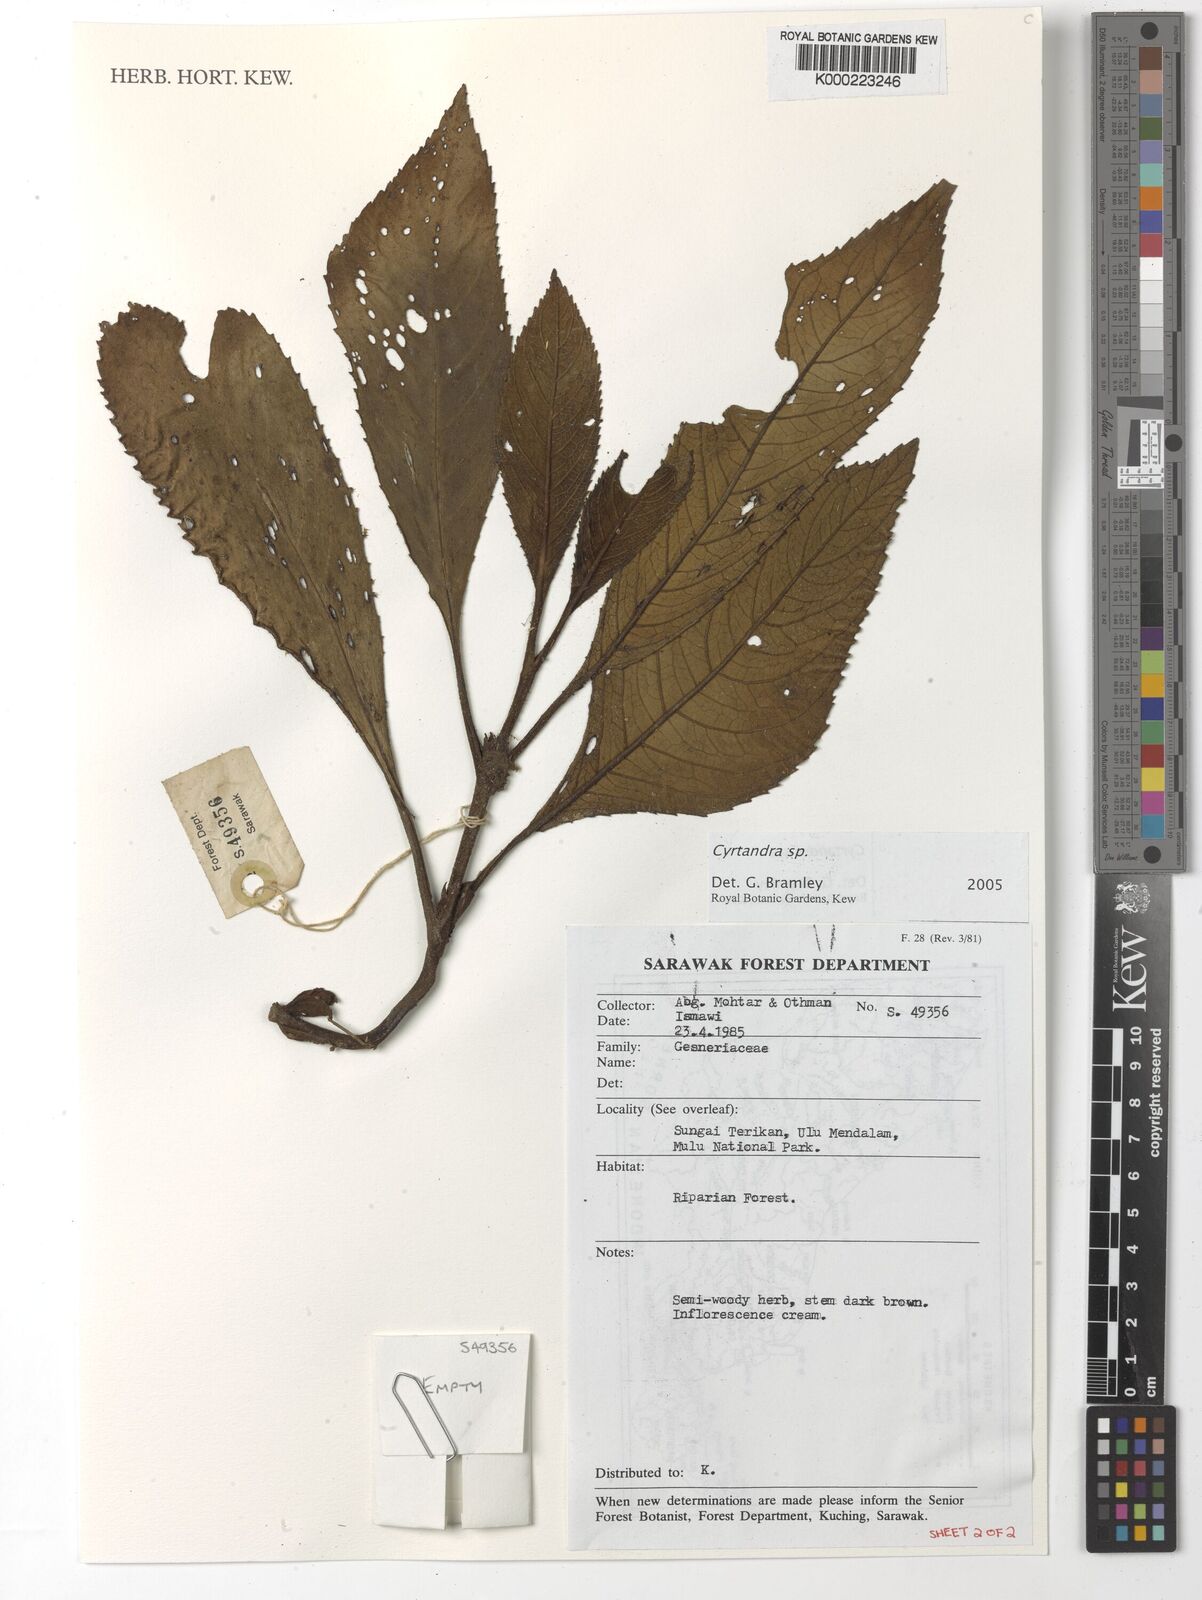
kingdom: Plantae
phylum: Tracheophyta
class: Magnoliopsida
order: Lamiales
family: Gesneriaceae
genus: Cyrtandra
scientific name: Cyrtandra
